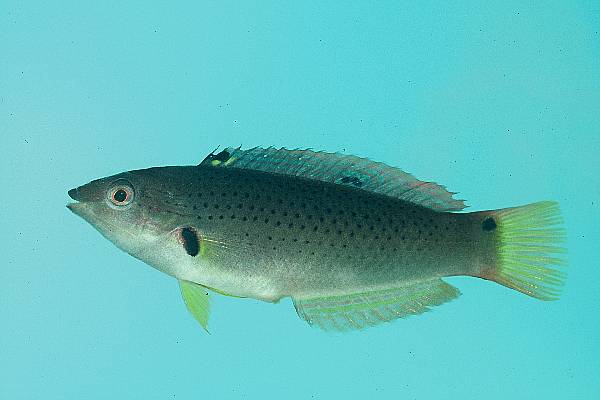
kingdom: Animalia
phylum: Chordata
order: Perciformes
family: Labridae
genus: Halichoeres
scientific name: Halichoeres melanochir
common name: Black wrasse
